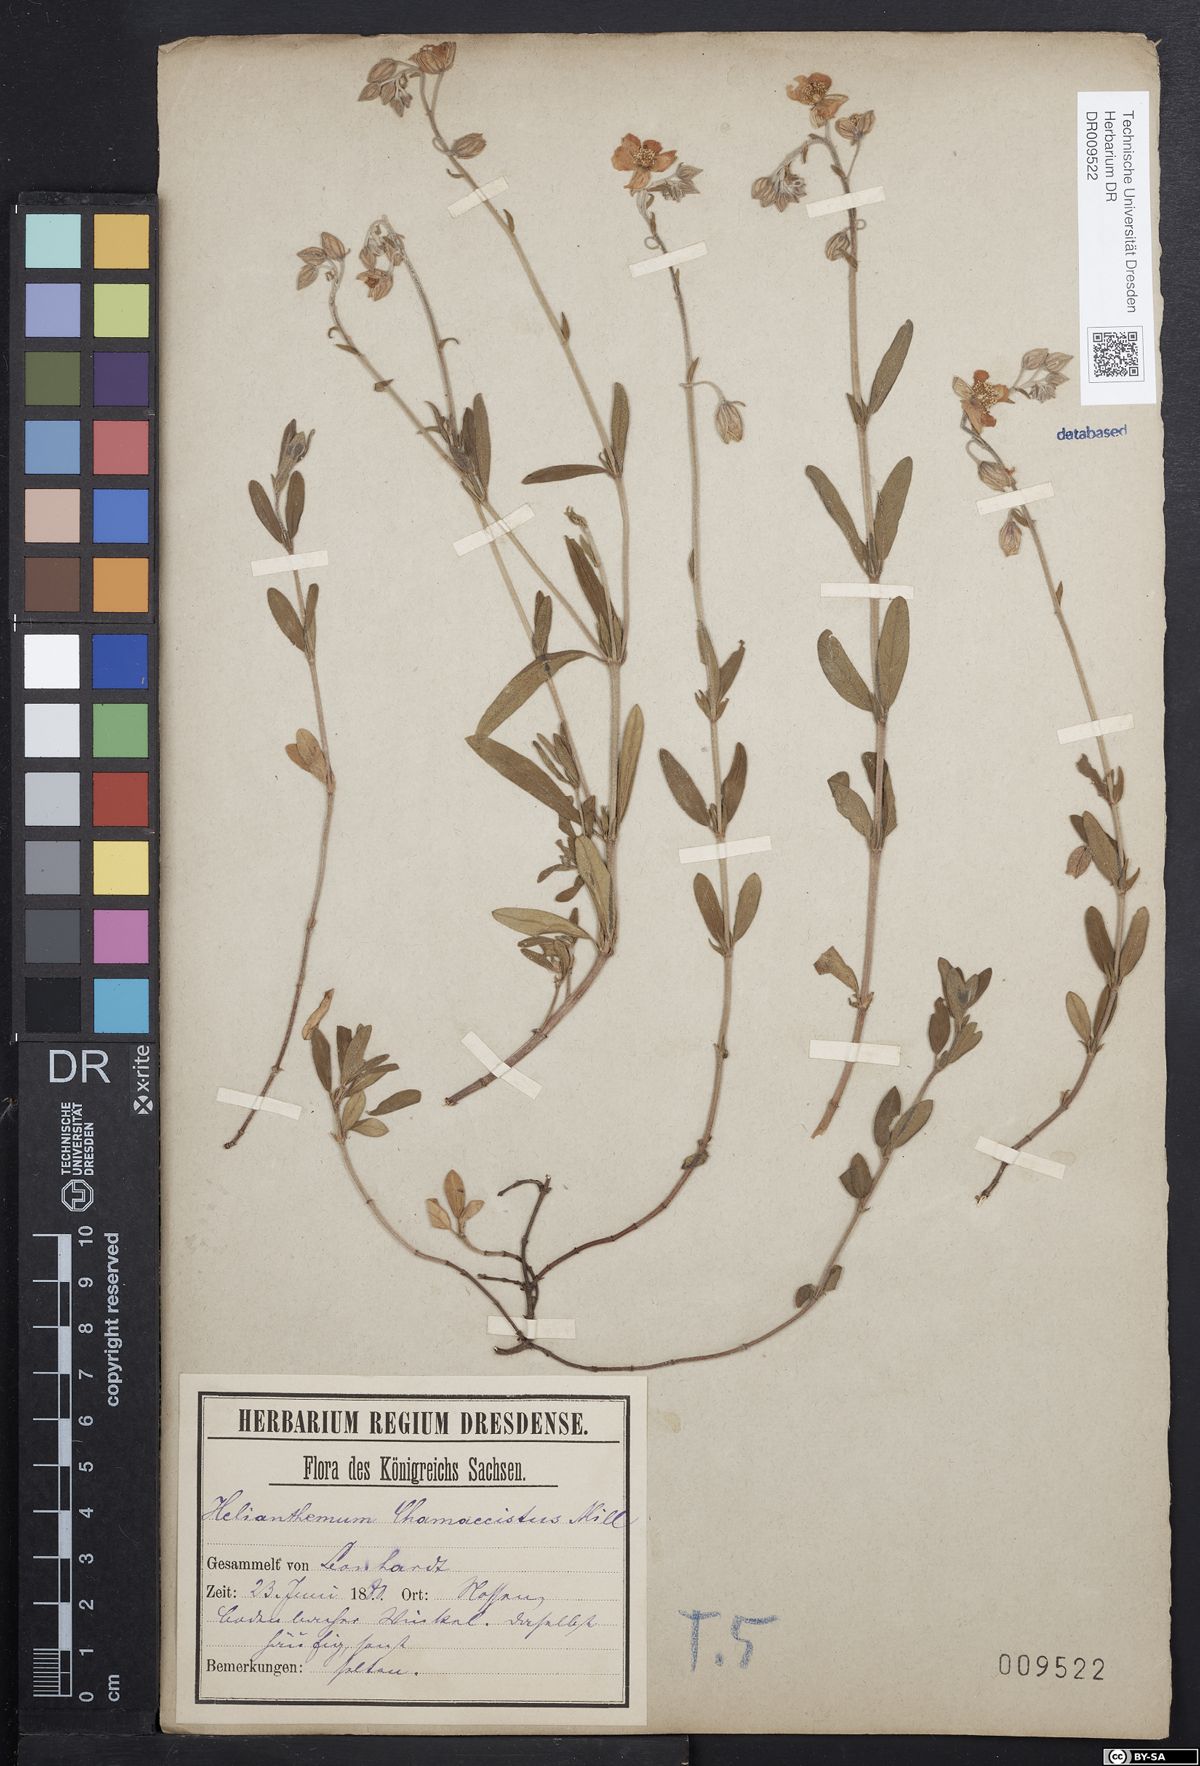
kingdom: Plantae
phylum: Tracheophyta
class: Magnoliopsida
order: Malvales
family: Cistaceae
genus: Helianthemum
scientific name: Helianthemum nummularium
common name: Common rock-rose
